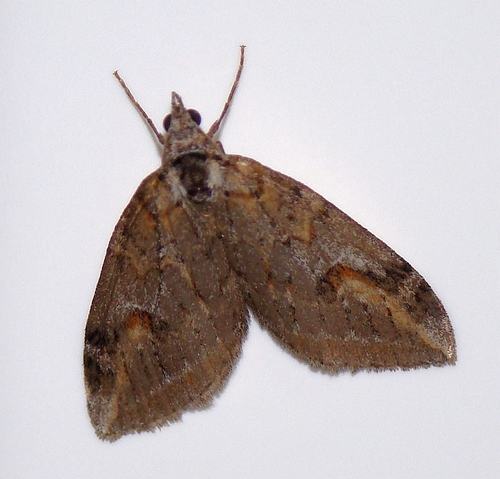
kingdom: Animalia
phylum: Arthropoda
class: Insecta
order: Lepidoptera
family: Geometridae
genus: Chesias
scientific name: Chesias isabella
